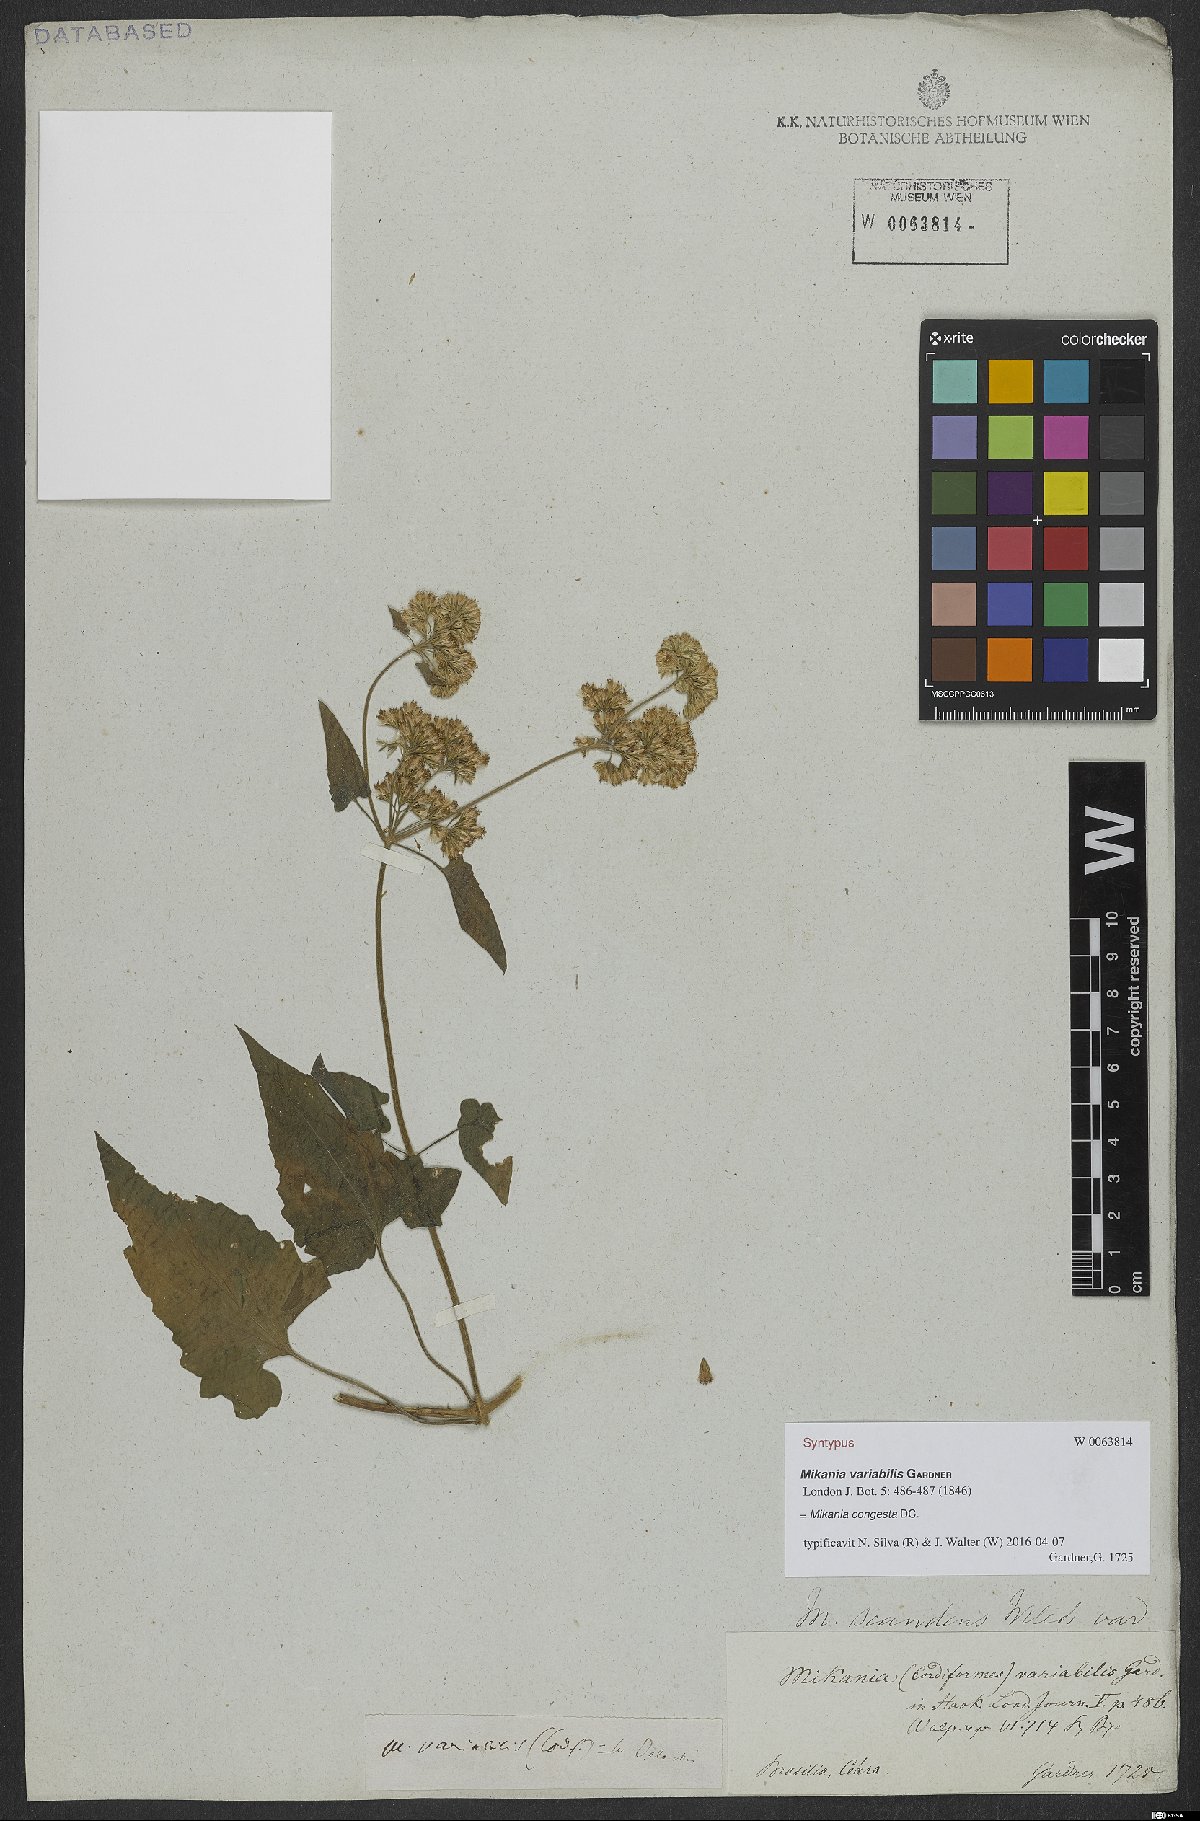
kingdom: Plantae
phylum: Tracheophyta
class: Magnoliopsida
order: Asterales
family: Asteraceae
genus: Mikania
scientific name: Mikania congesta
